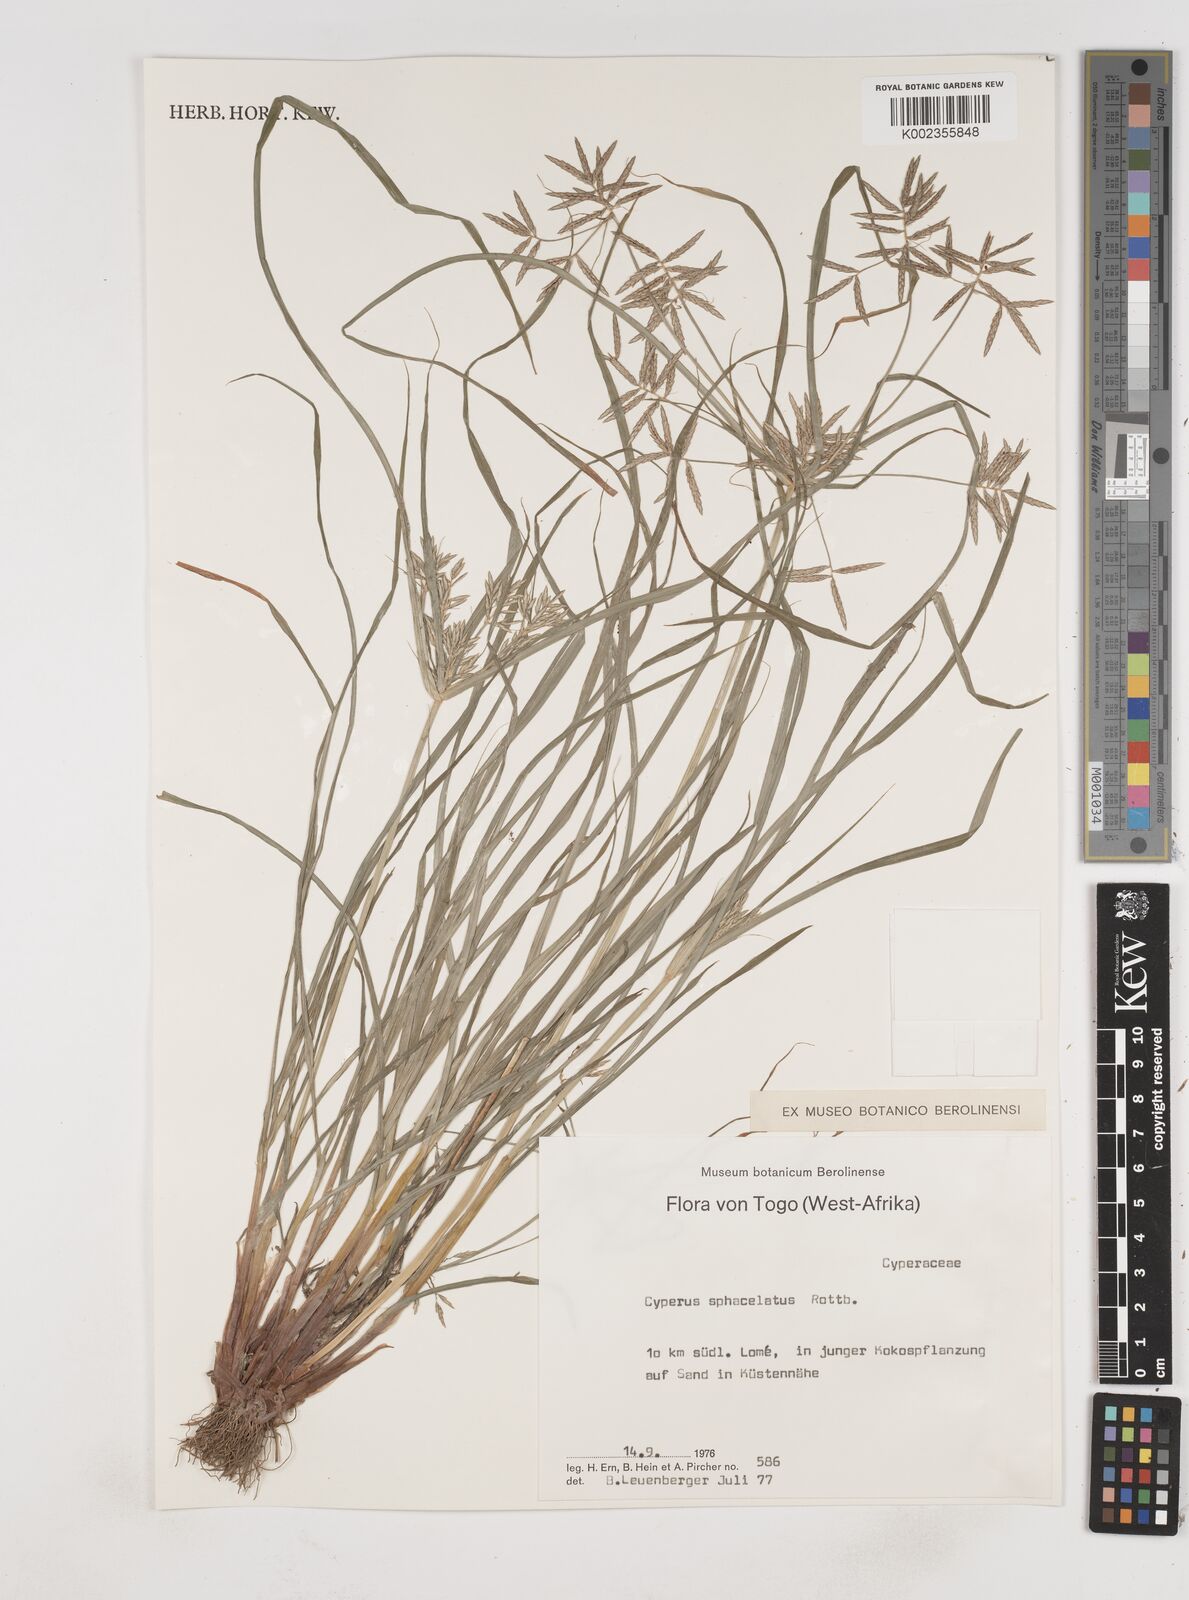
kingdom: Plantae
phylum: Tracheophyta
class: Liliopsida
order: Poales
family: Cyperaceae
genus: Cyperus
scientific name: Cyperus sphacelatus
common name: Roadside flatsedge
